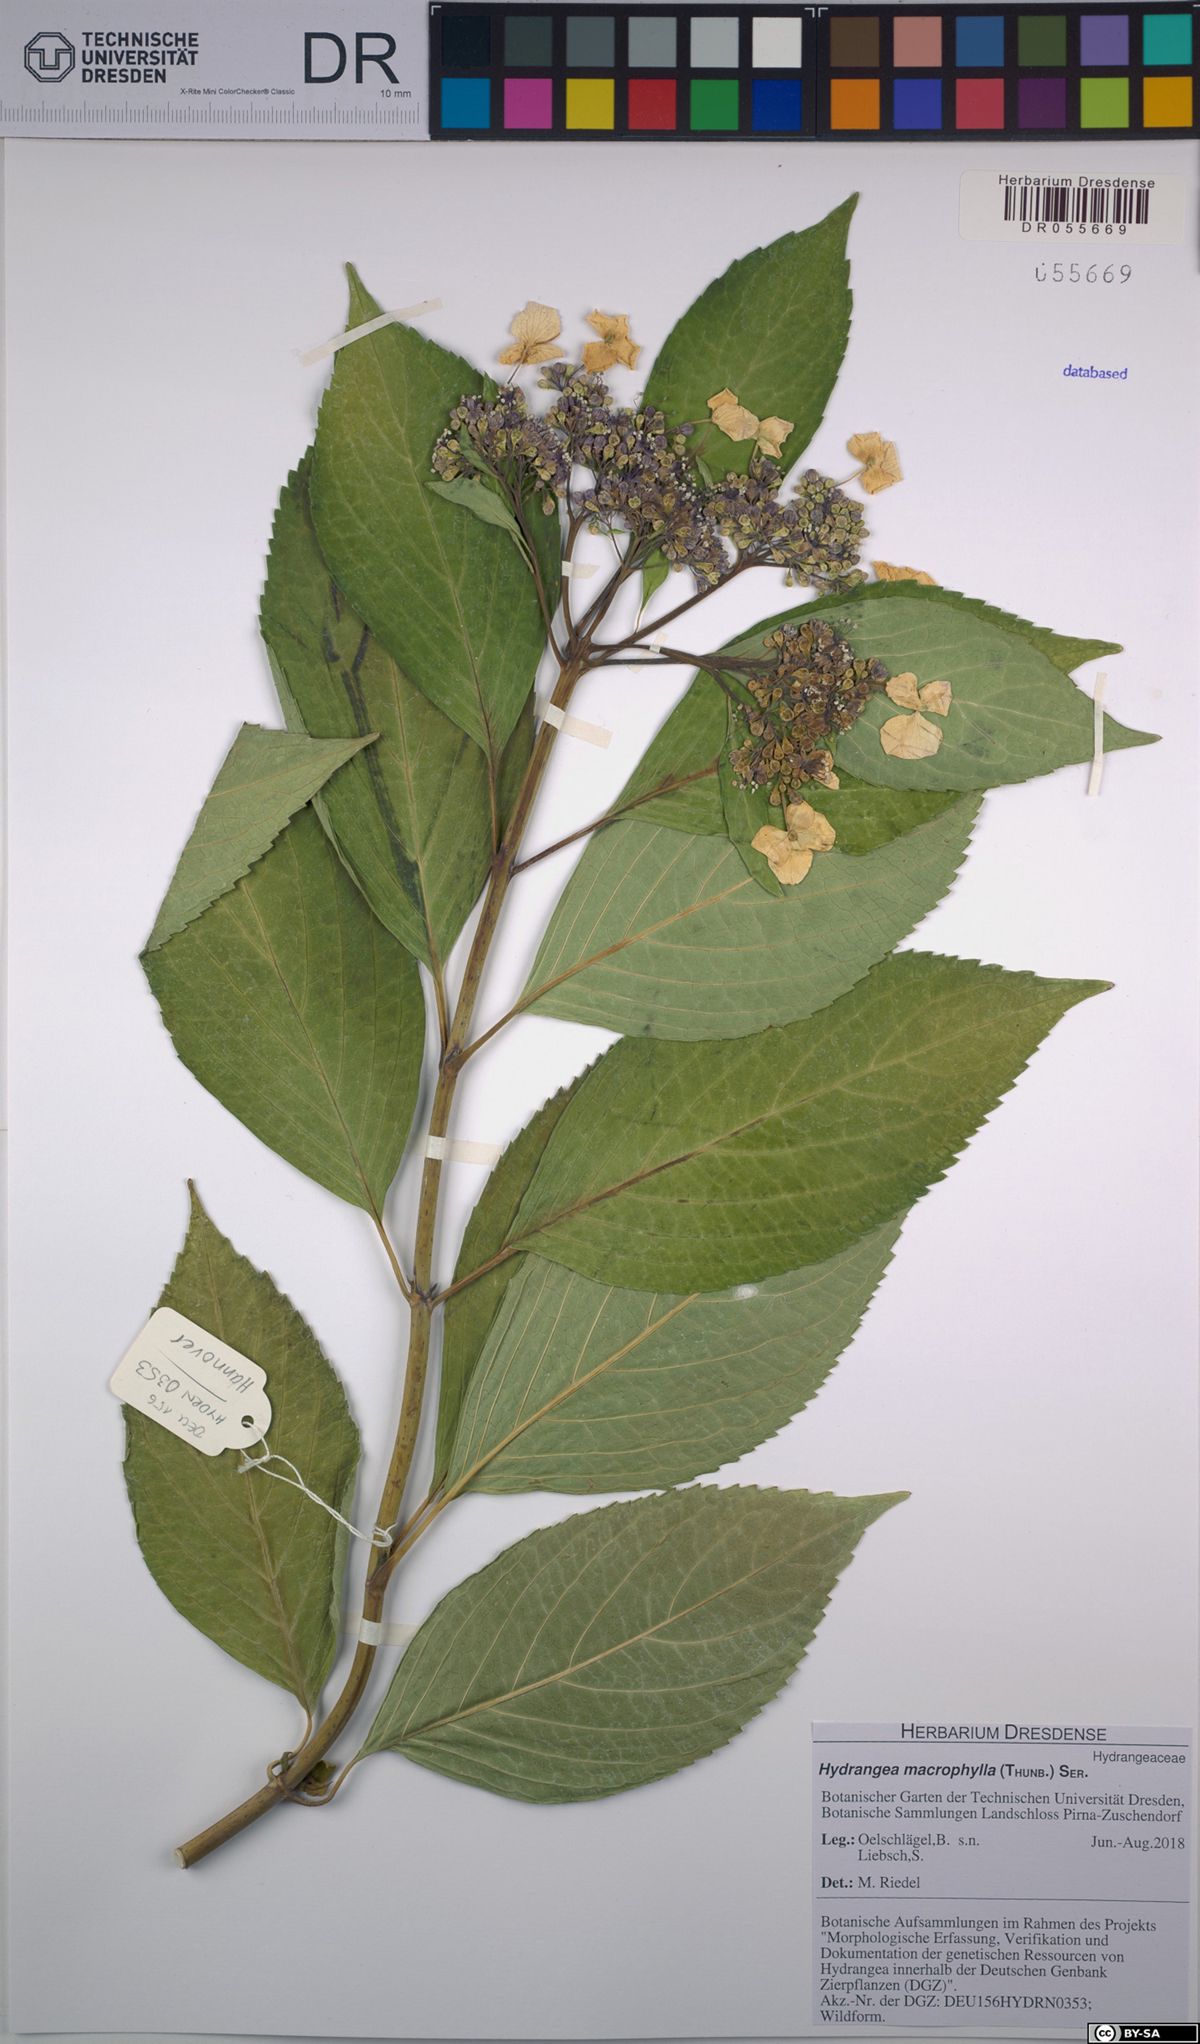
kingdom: Plantae
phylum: Tracheophyta
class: Magnoliopsida
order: Cornales
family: Hydrangeaceae
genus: Hydrangea
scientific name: Hydrangea macrophylla
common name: Hydrangea
